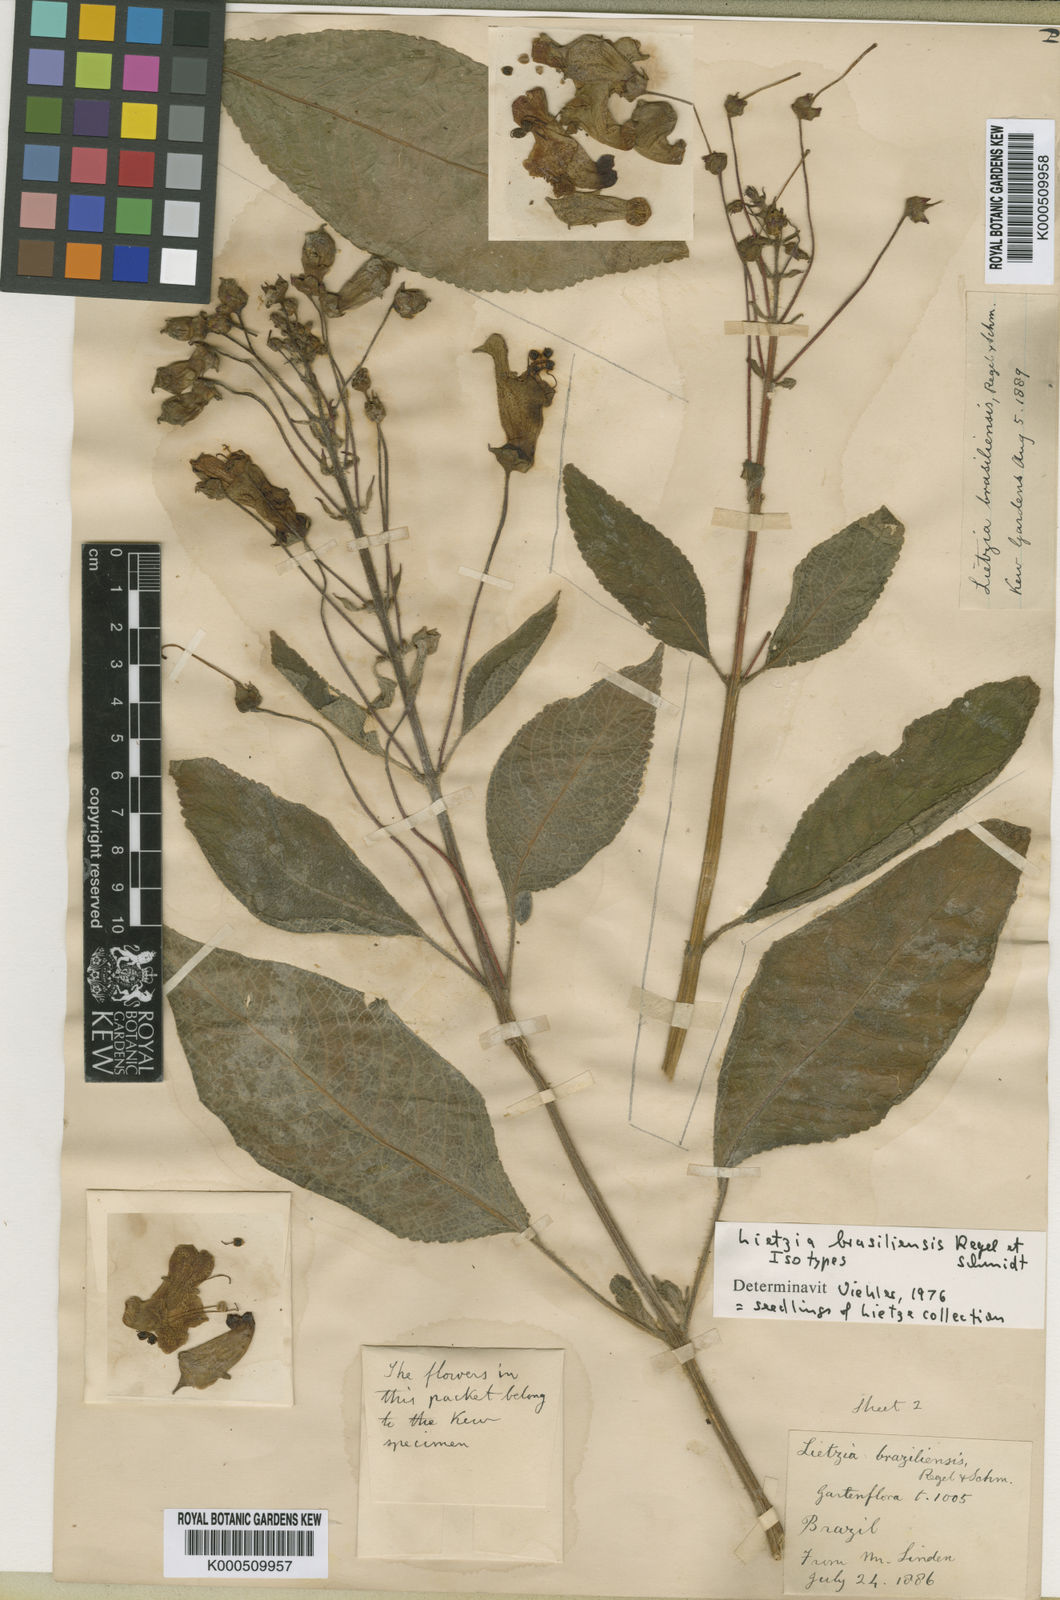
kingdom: Plantae
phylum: Tracheophyta
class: Magnoliopsida
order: Lamiales
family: Gesneriaceae
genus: Sinningia
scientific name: Sinningia brasiliensis
